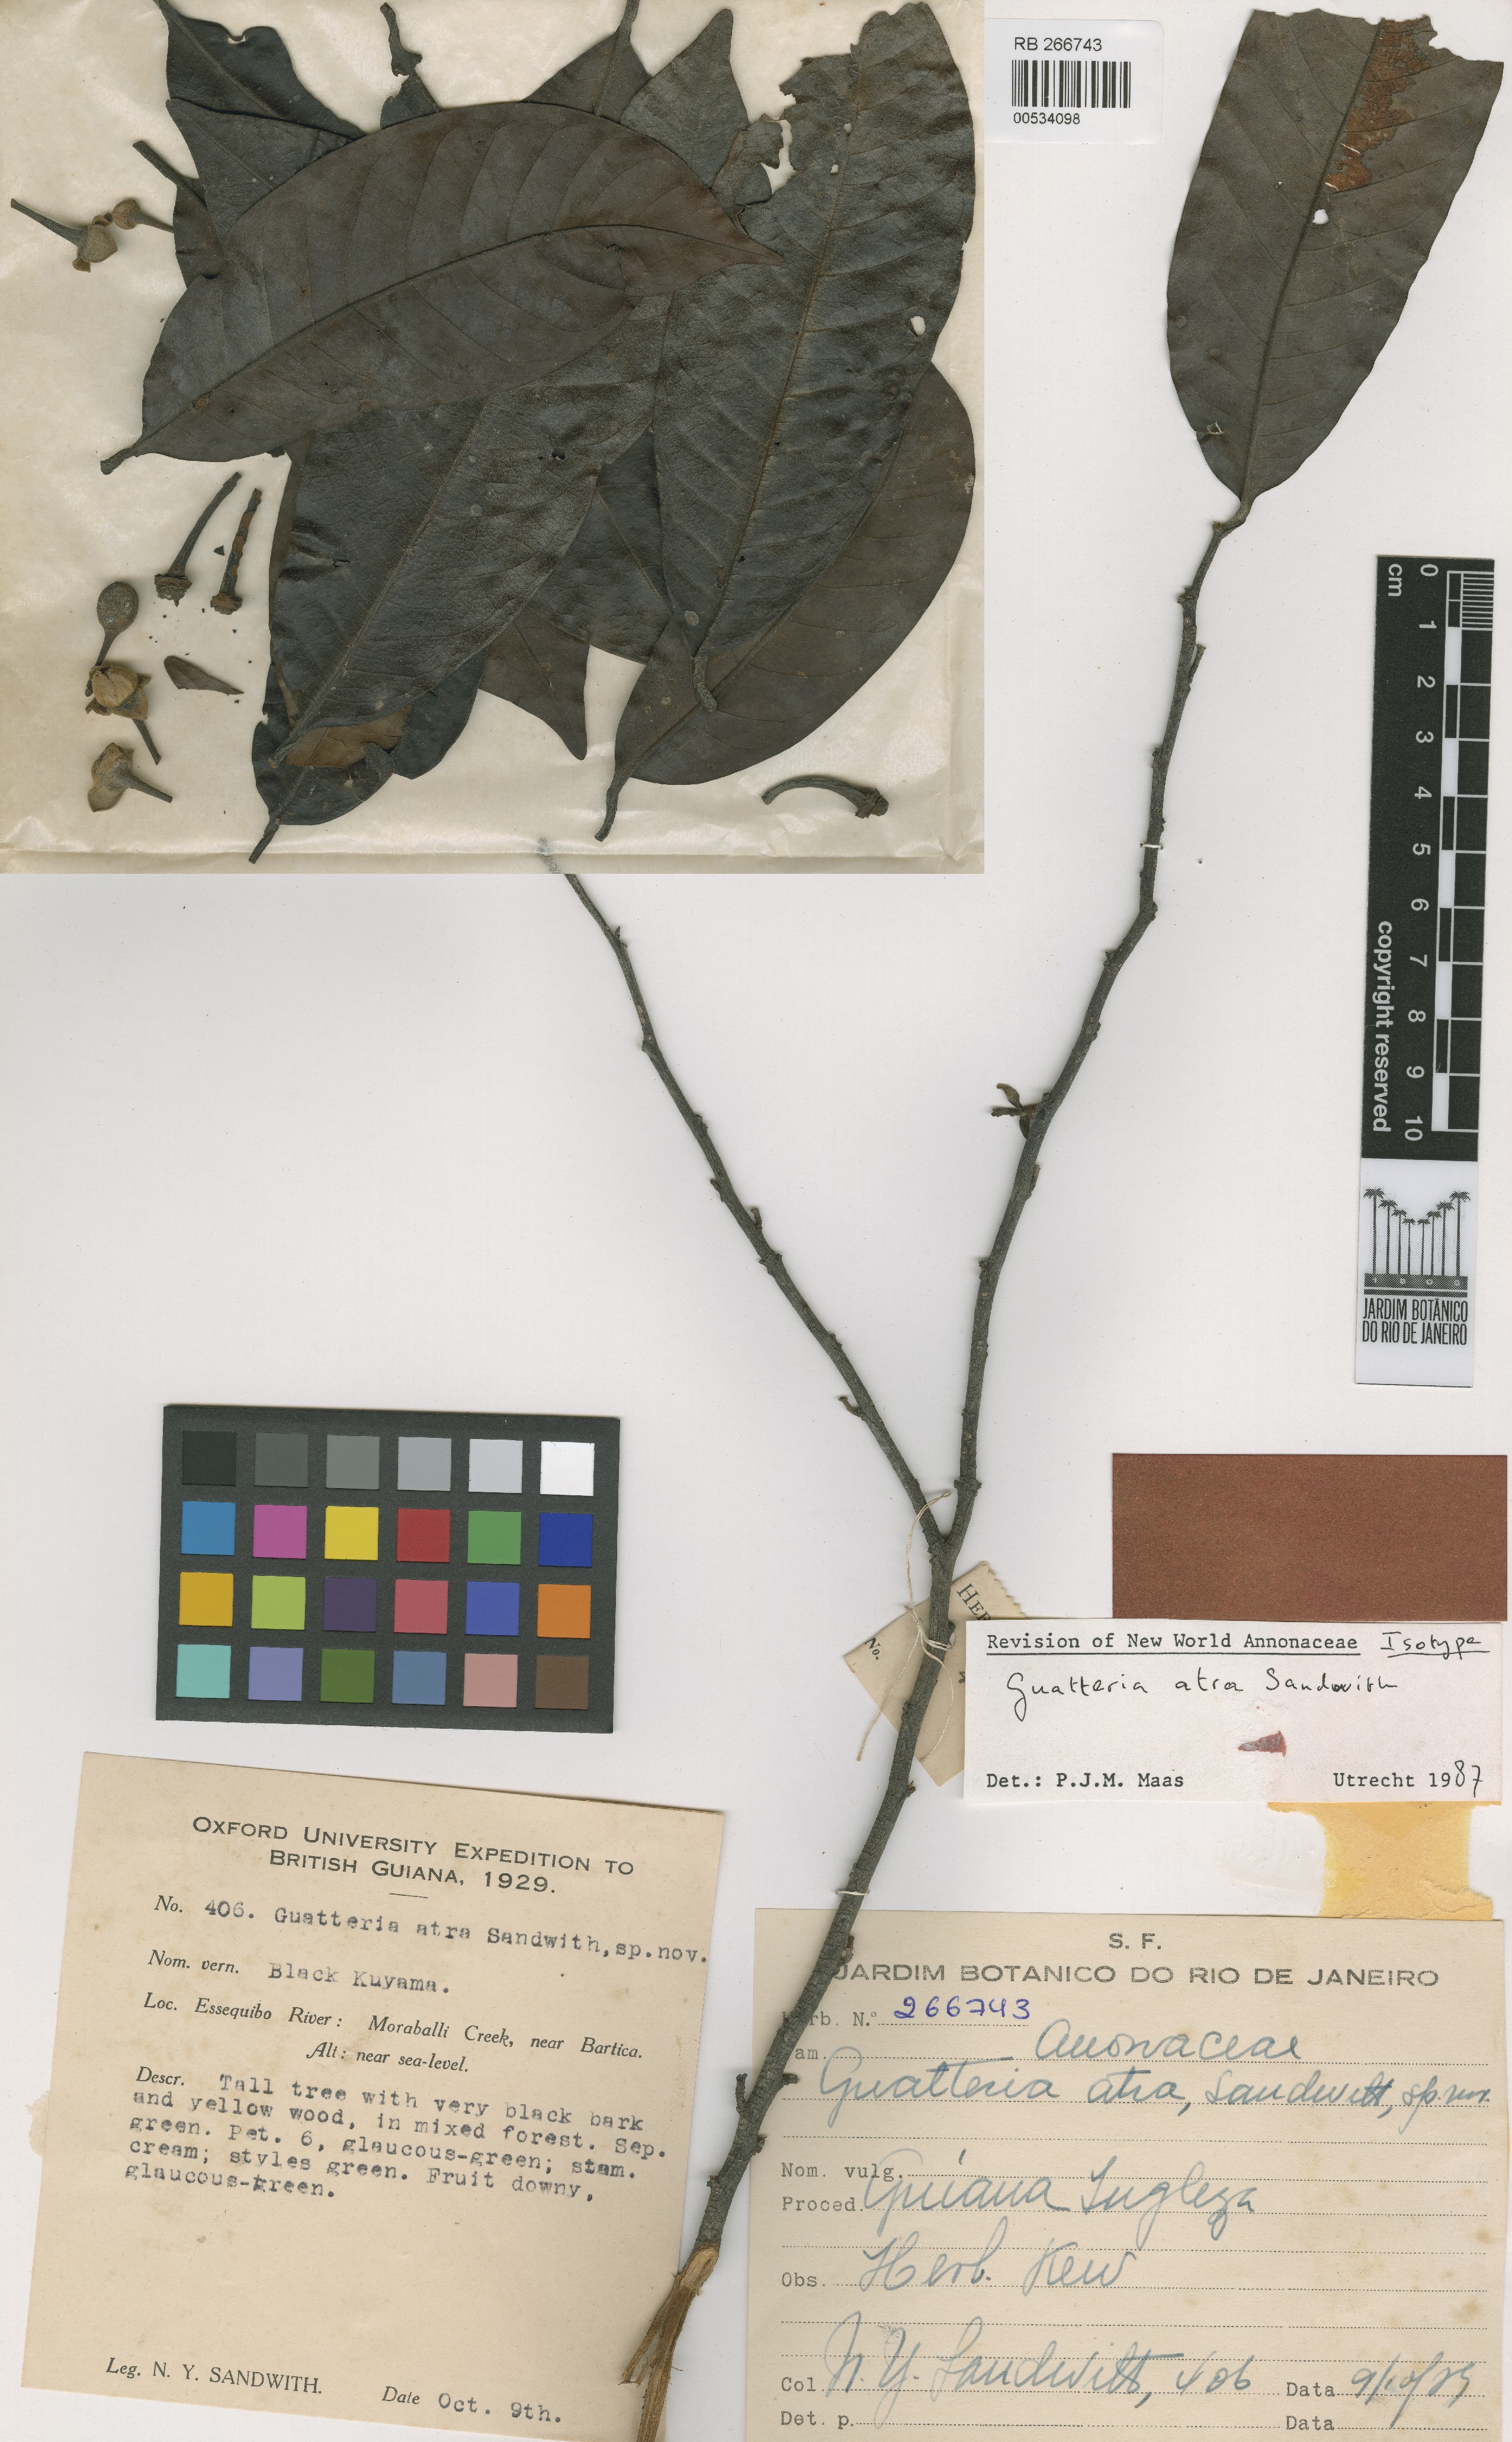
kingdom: Plantae
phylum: Tracheophyta
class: Magnoliopsida
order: Magnoliales
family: Annonaceae
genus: Guatteria
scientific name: Guatteria atra
